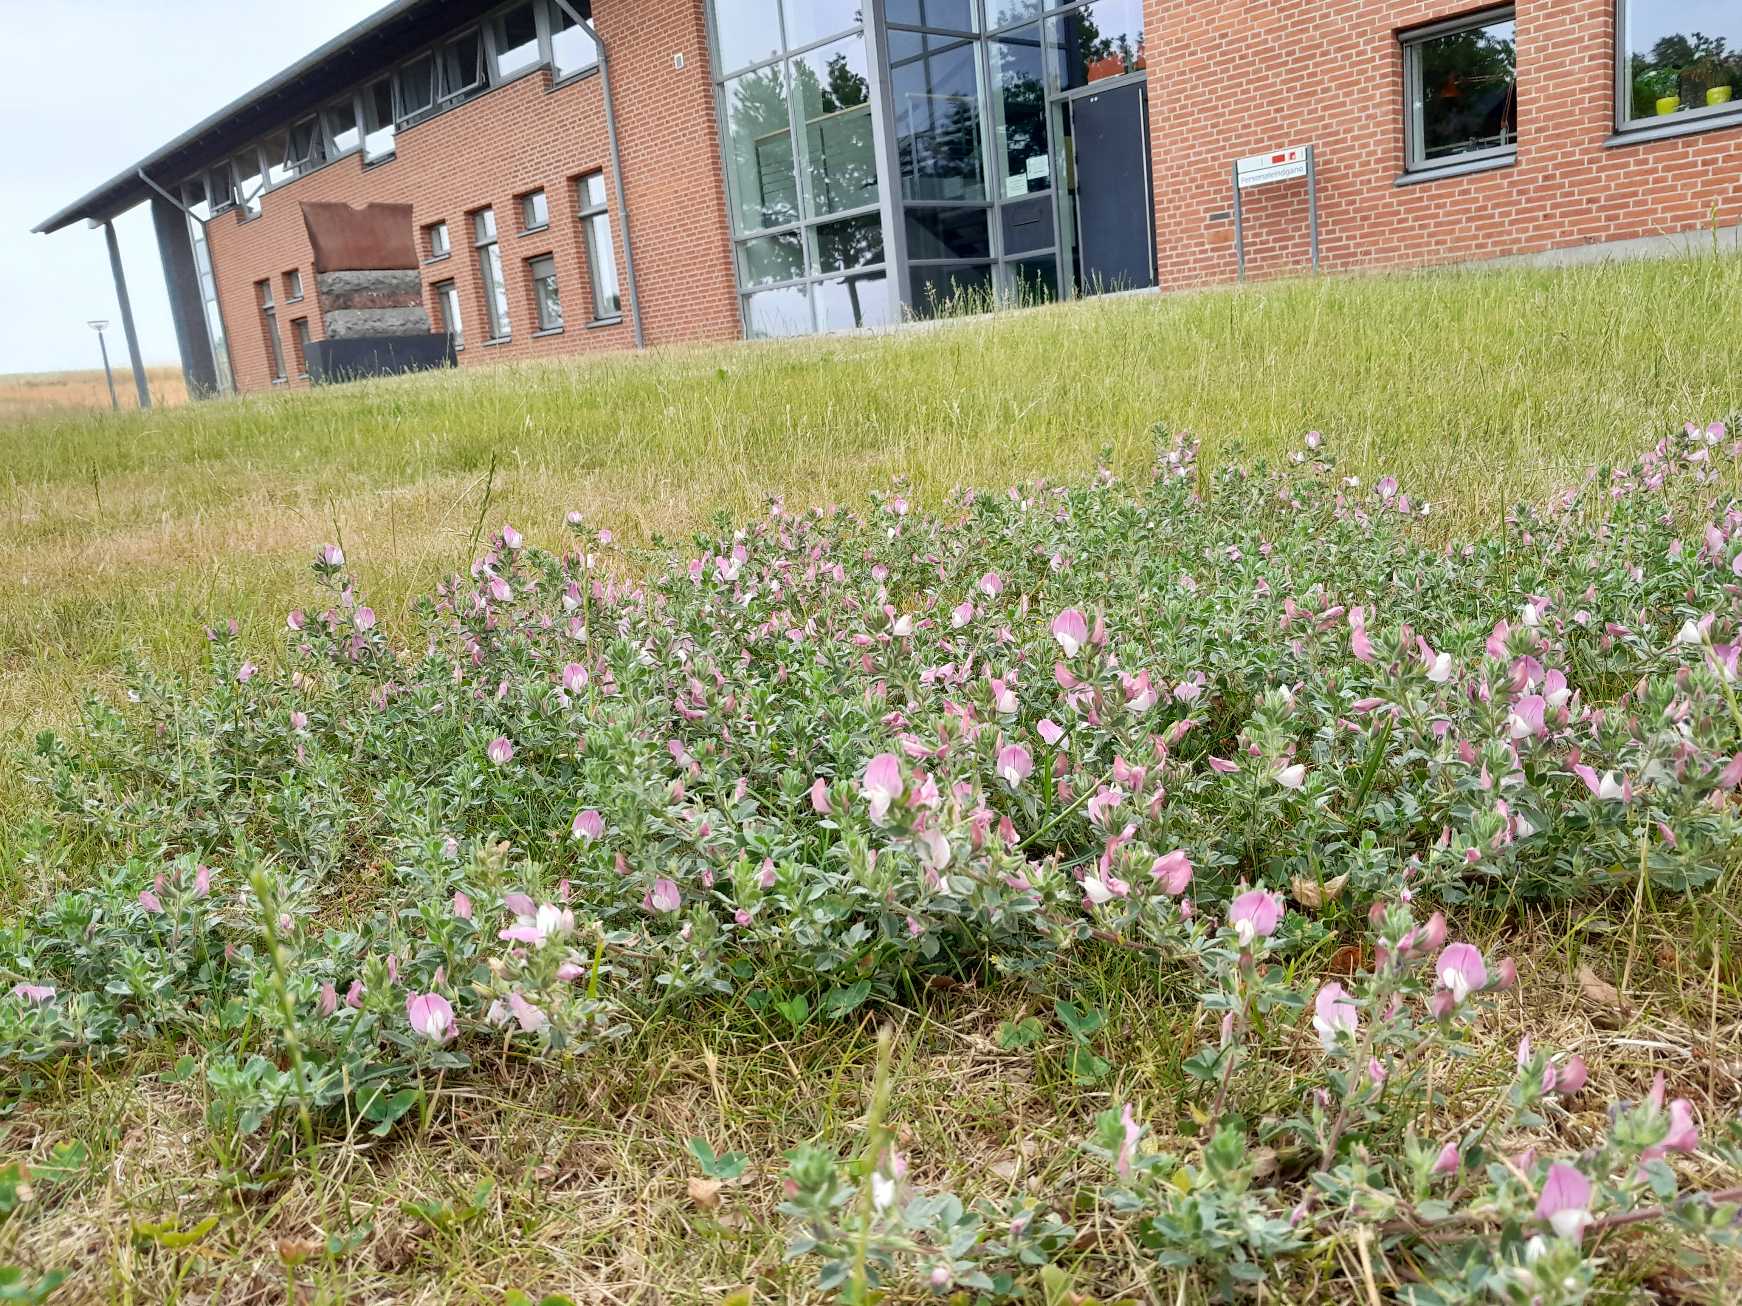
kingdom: Plantae
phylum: Tracheophyta
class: Magnoliopsida
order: Fabales
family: Fabaceae
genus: Ononis
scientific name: Ononis spinosa
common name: Mark-krageklo
